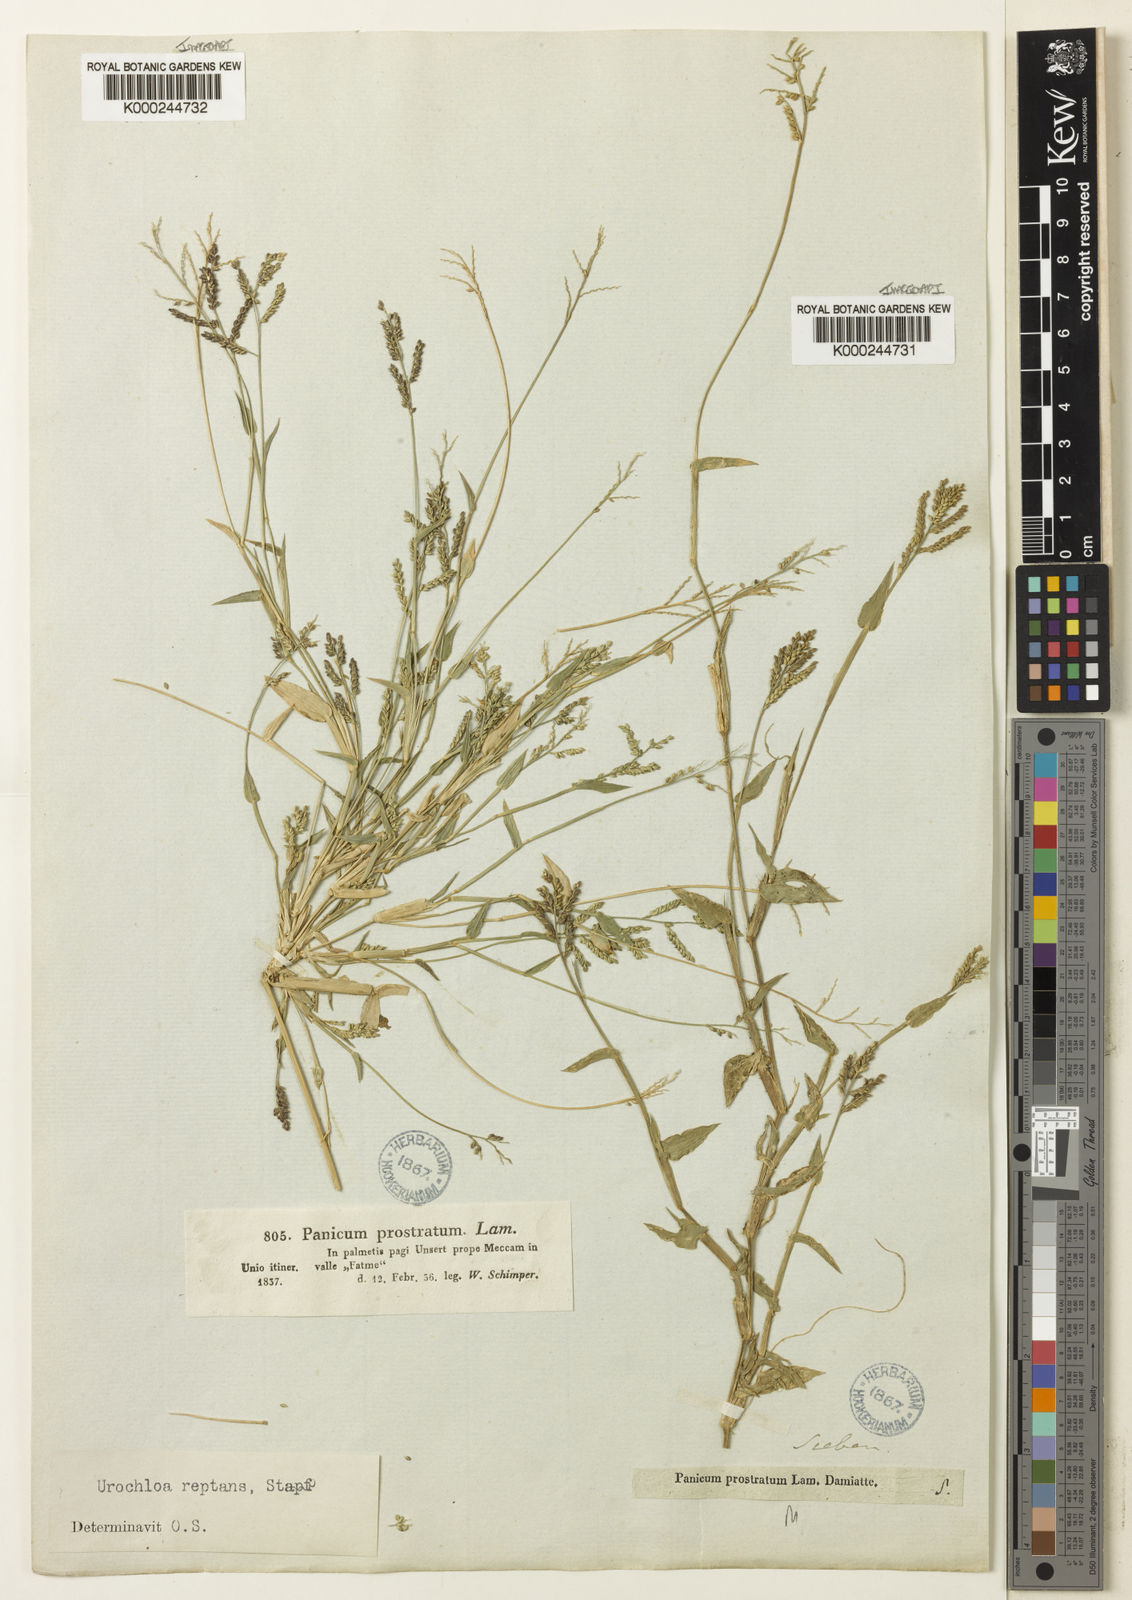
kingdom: Plantae
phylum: Tracheophyta
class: Liliopsida
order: Poales
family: Poaceae
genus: Urochloa
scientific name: Urochloa reptans
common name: Sprawling signalgrass
